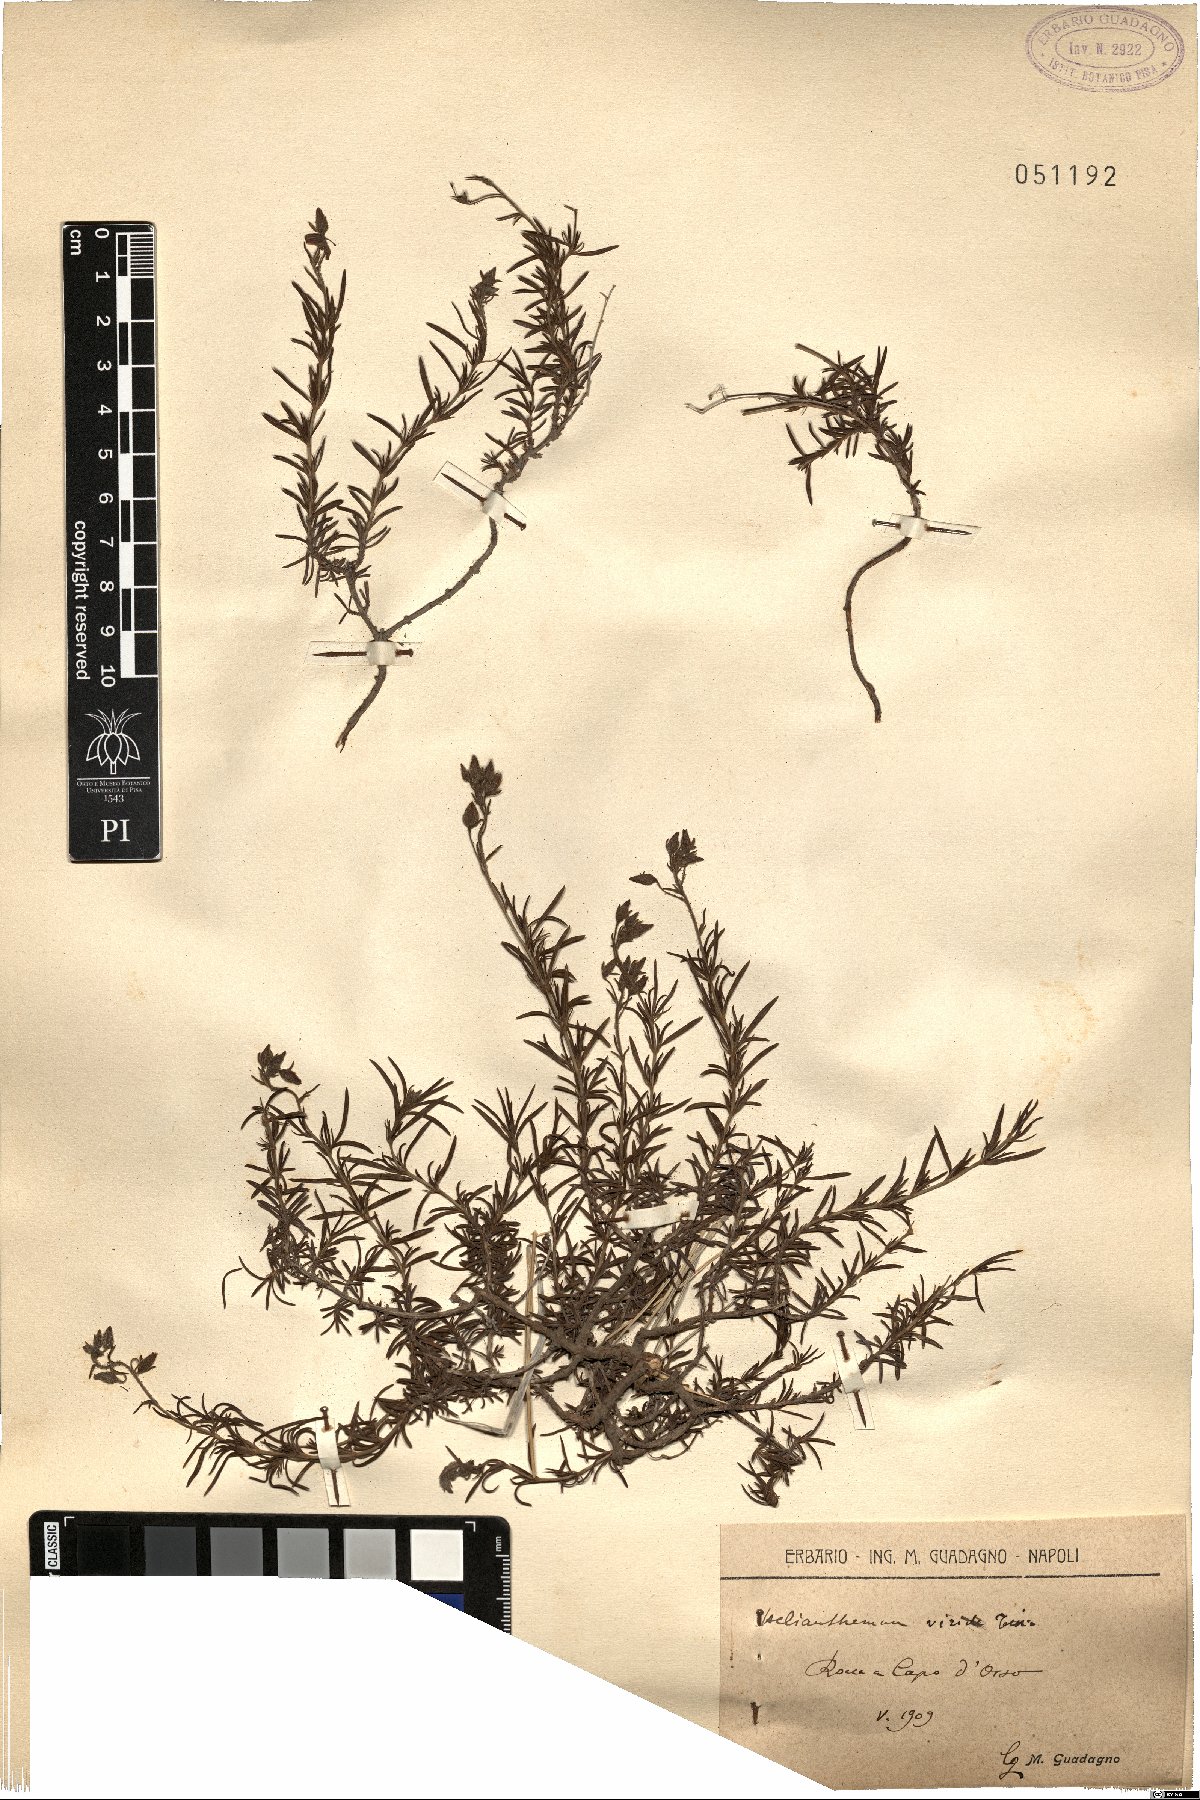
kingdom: Plantae
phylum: Tracheophyta
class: Magnoliopsida
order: Malvales
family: Cistaceae
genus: Fumana
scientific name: Fumana laevis
